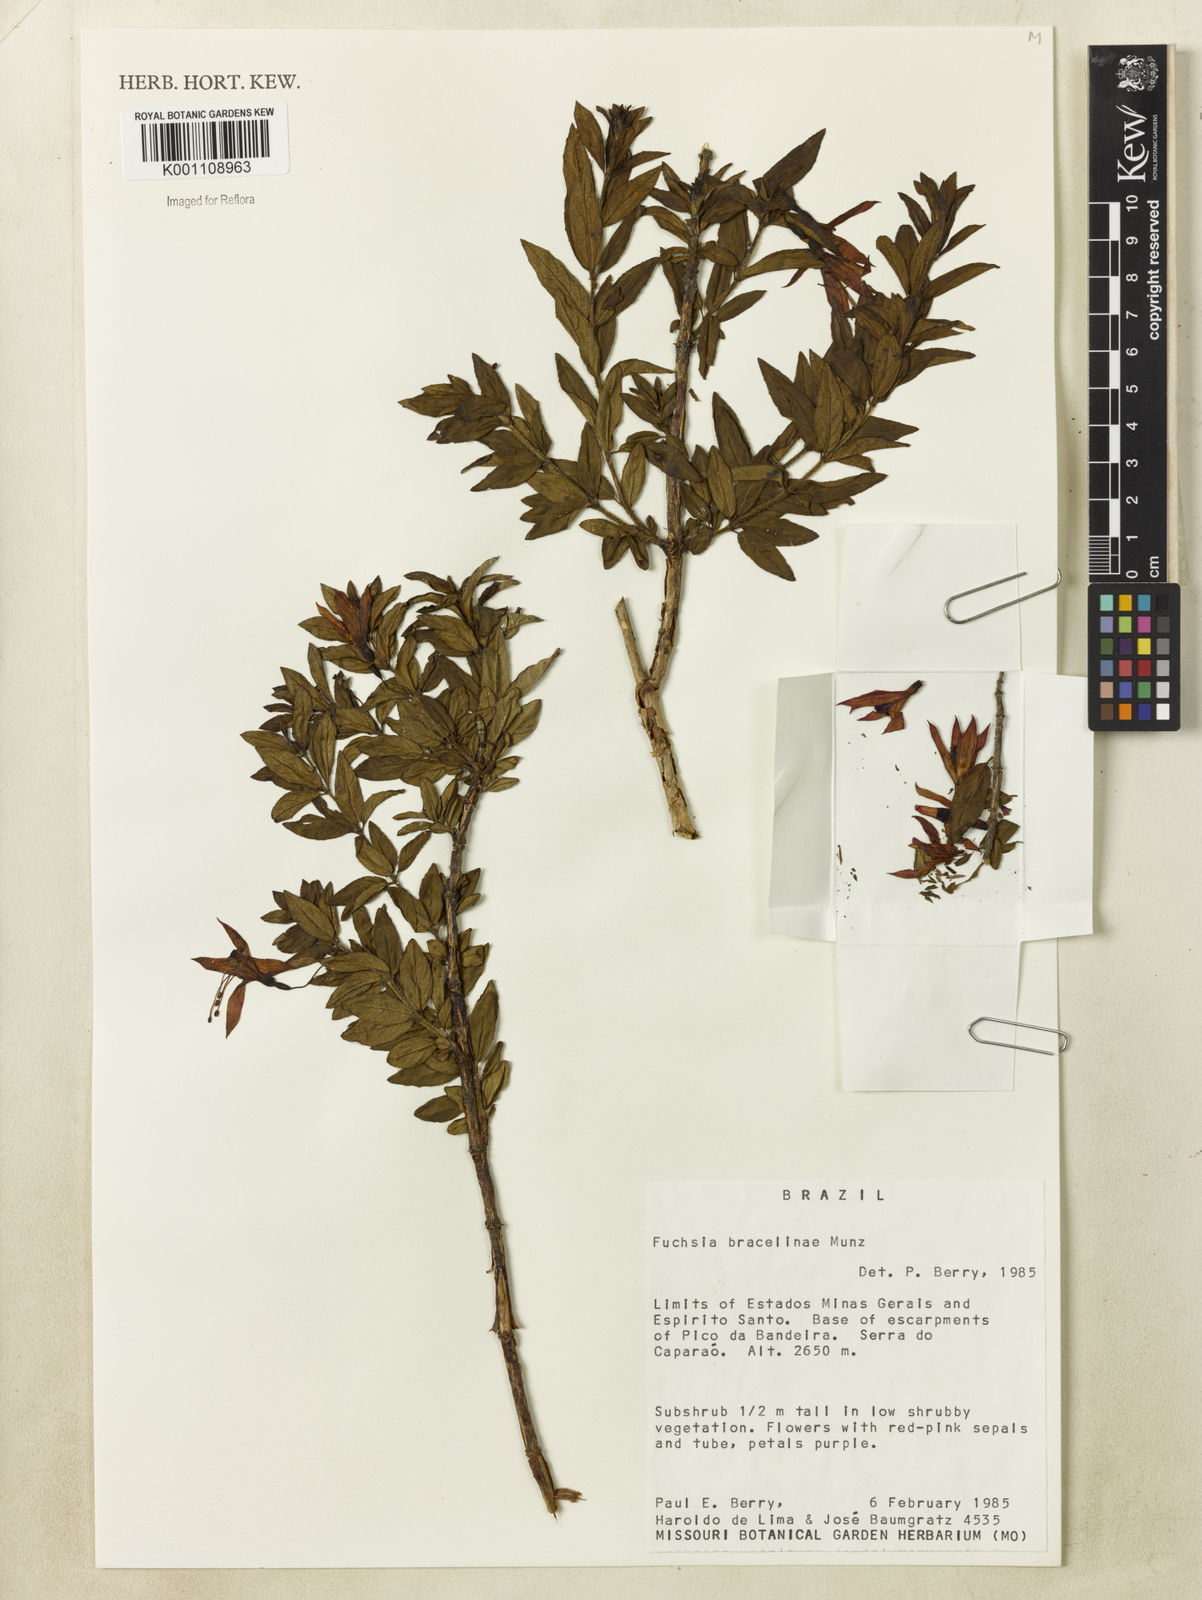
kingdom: Plantae
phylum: Tracheophyta
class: Magnoliopsida
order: Myrtales
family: Onagraceae
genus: Fuchsia
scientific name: Fuchsia bracelinae
